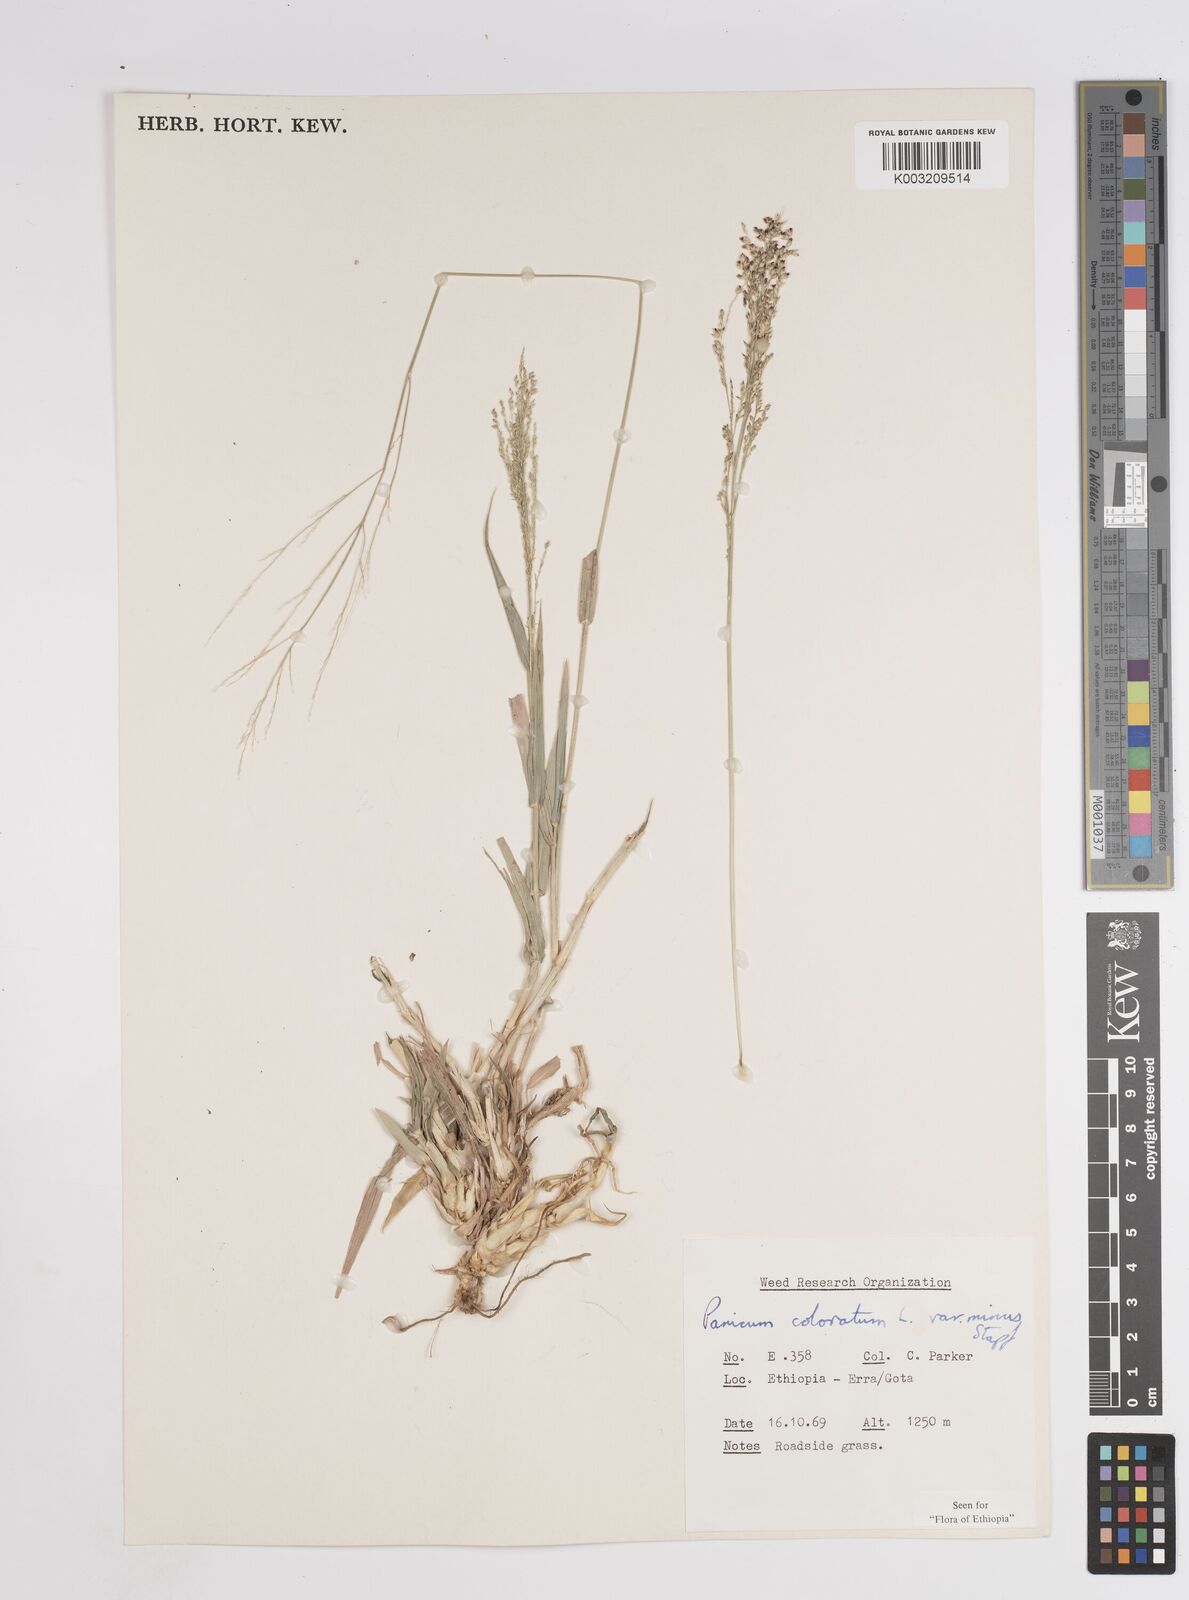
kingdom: Plantae
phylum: Tracheophyta
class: Liliopsida
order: Poales
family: Poaceae
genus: Tricholaena
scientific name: Tricholaena monachne
